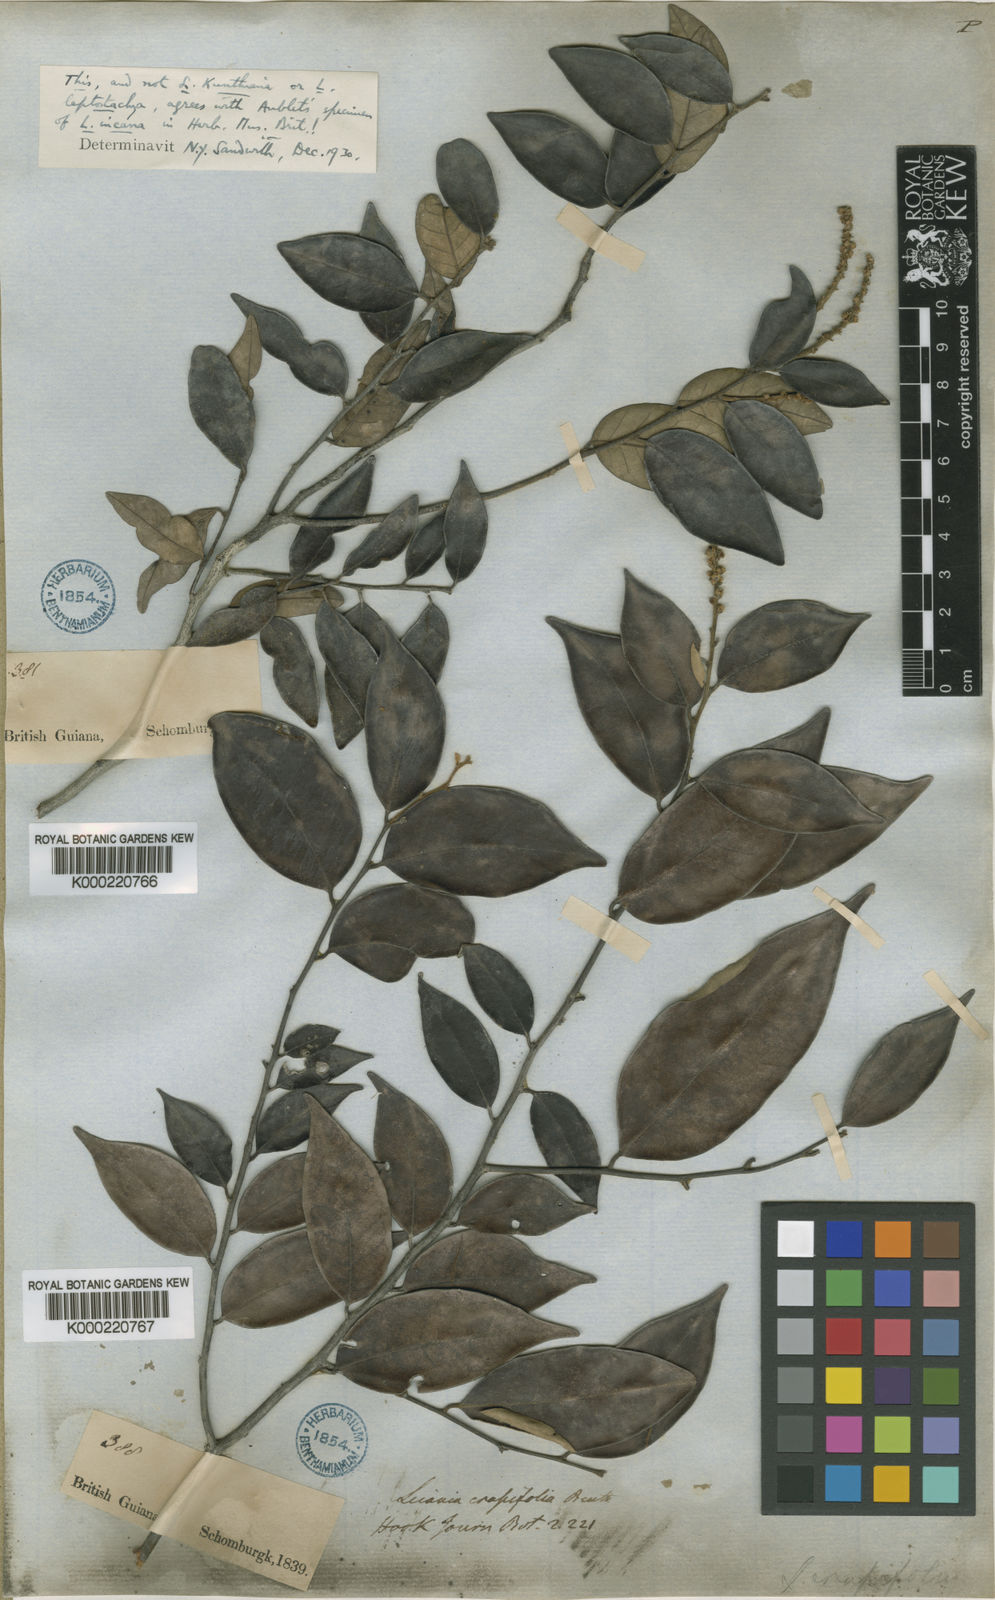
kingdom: Plantae
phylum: Tracheophyta
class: Magnoliopsida
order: Malpighiales
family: Chrysobalanaceae
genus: Licania
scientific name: Licania incana
